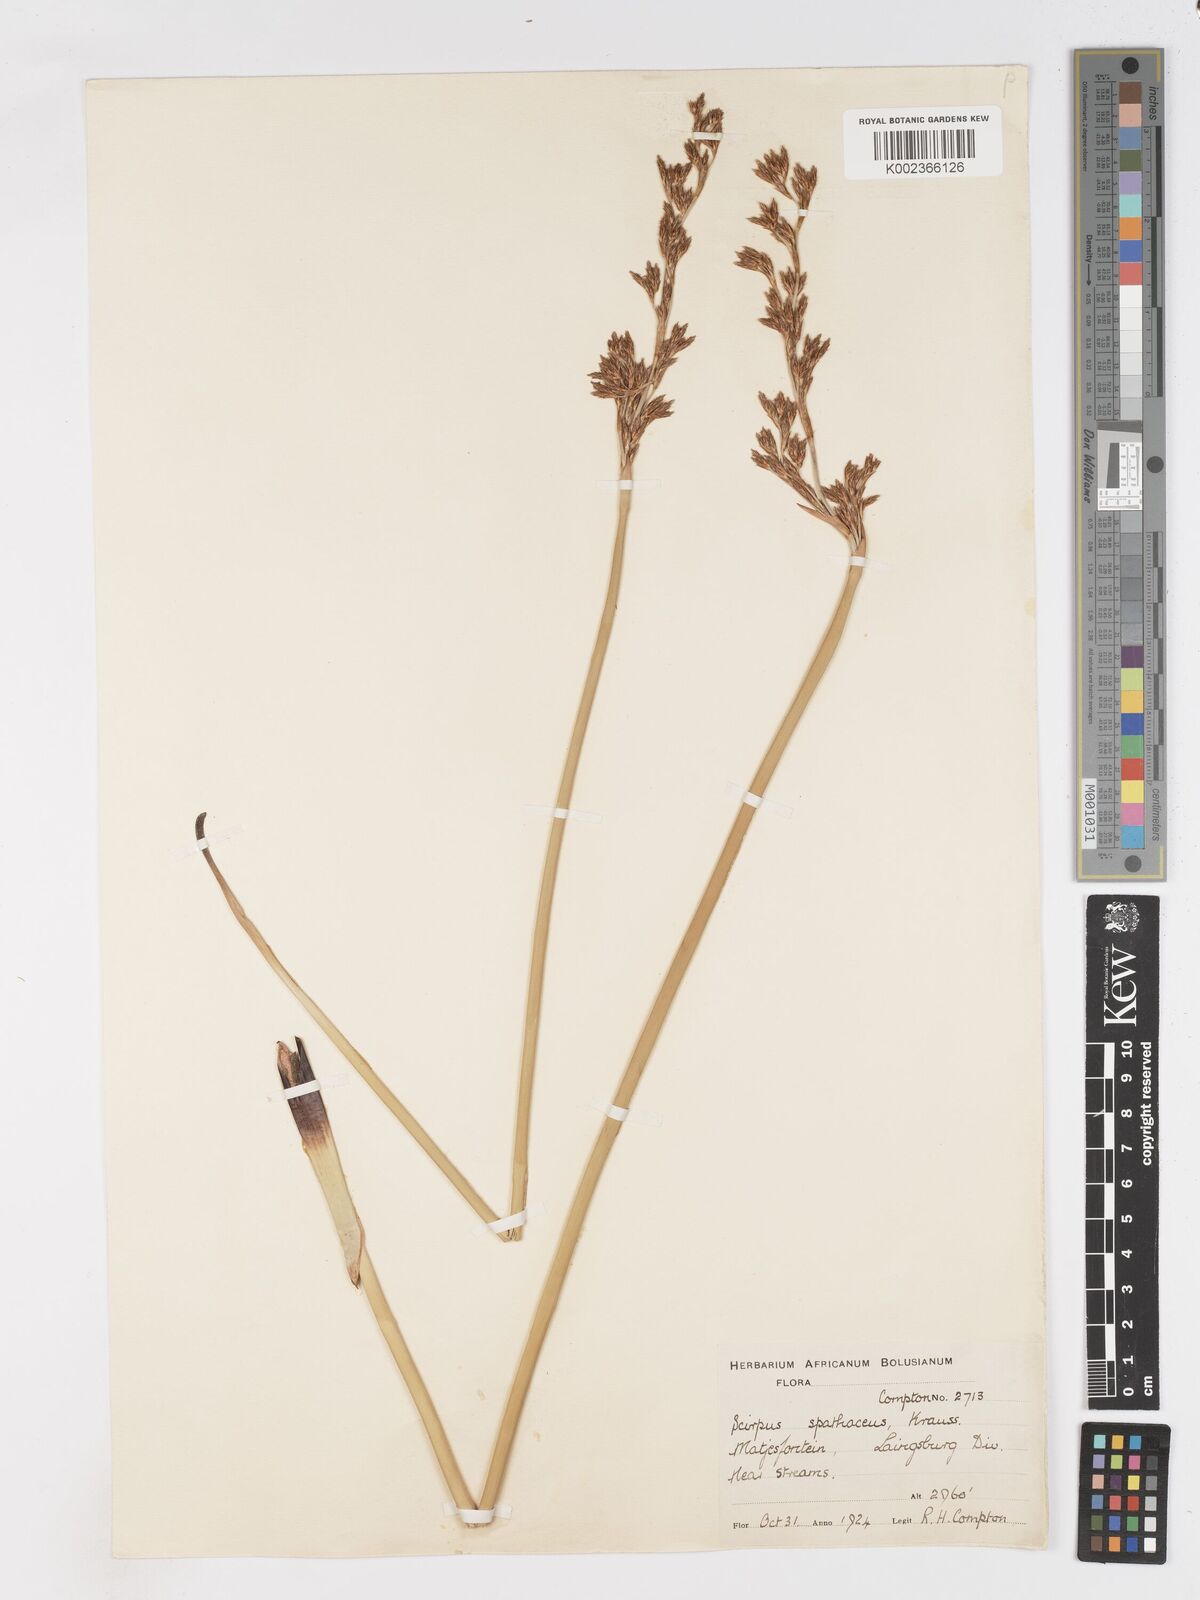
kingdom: Plantae
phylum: Tracheophyta
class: Liliopsida
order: Poales
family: Cyperaceae
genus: Pseudoschoenus
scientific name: Pseudoschoenus inanis
